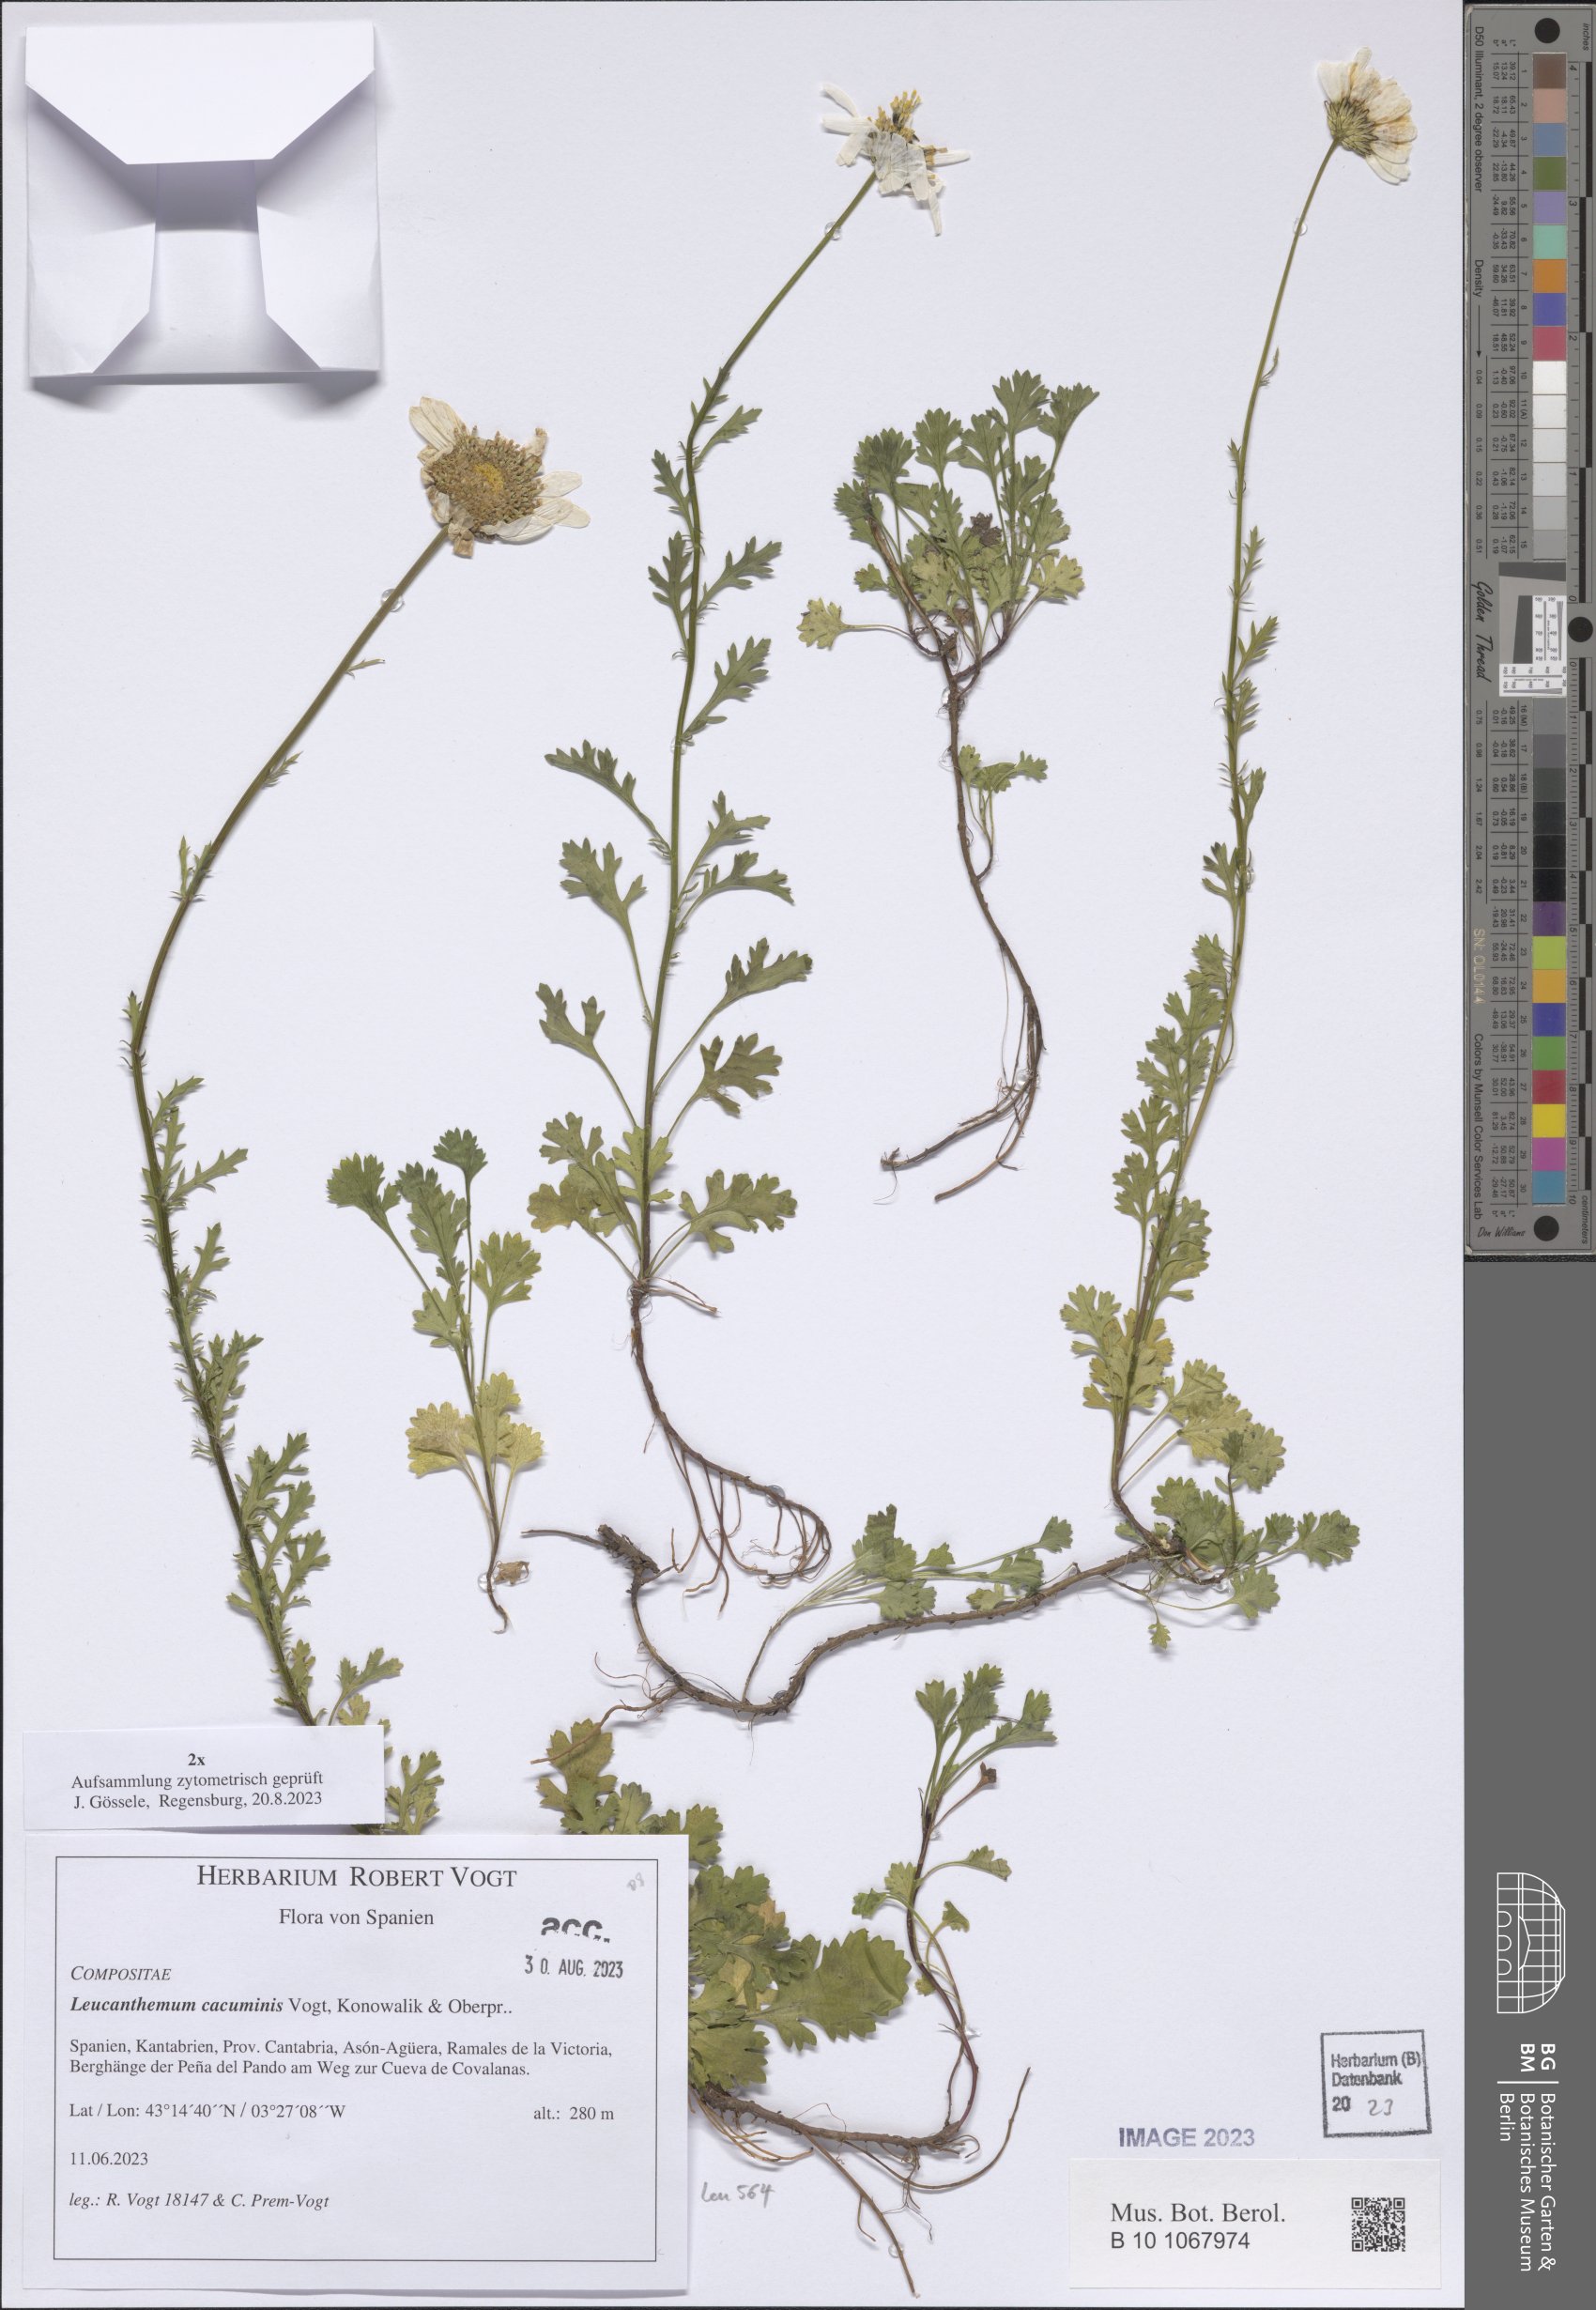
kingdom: Plantae
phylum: Tracheophyta
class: Magnoliopsida
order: Asterales
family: Asteraceae
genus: Leucanthemum
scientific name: Leucanthemum cacuminis
